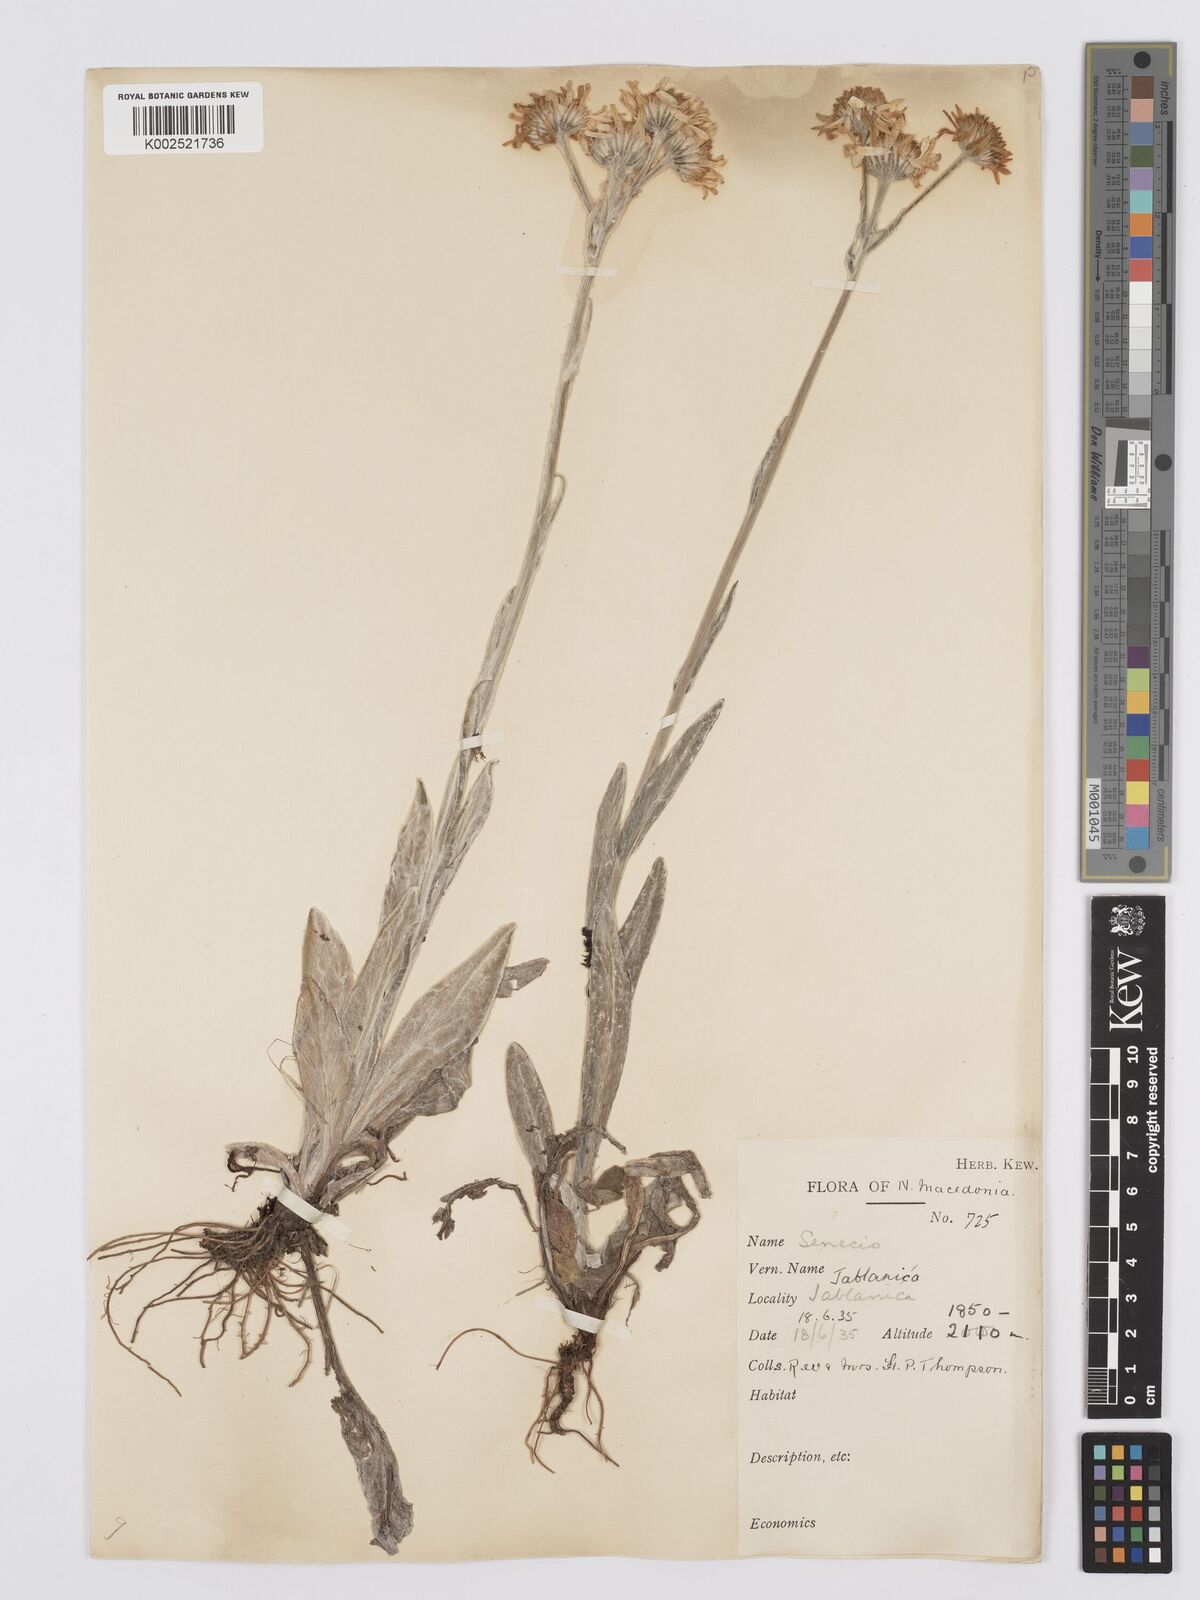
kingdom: Plantae
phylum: Tracheophyta
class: Magnoliopsida
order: Asterales
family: Asteraceae
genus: Tephroseris
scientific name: Tephroseris papposa
